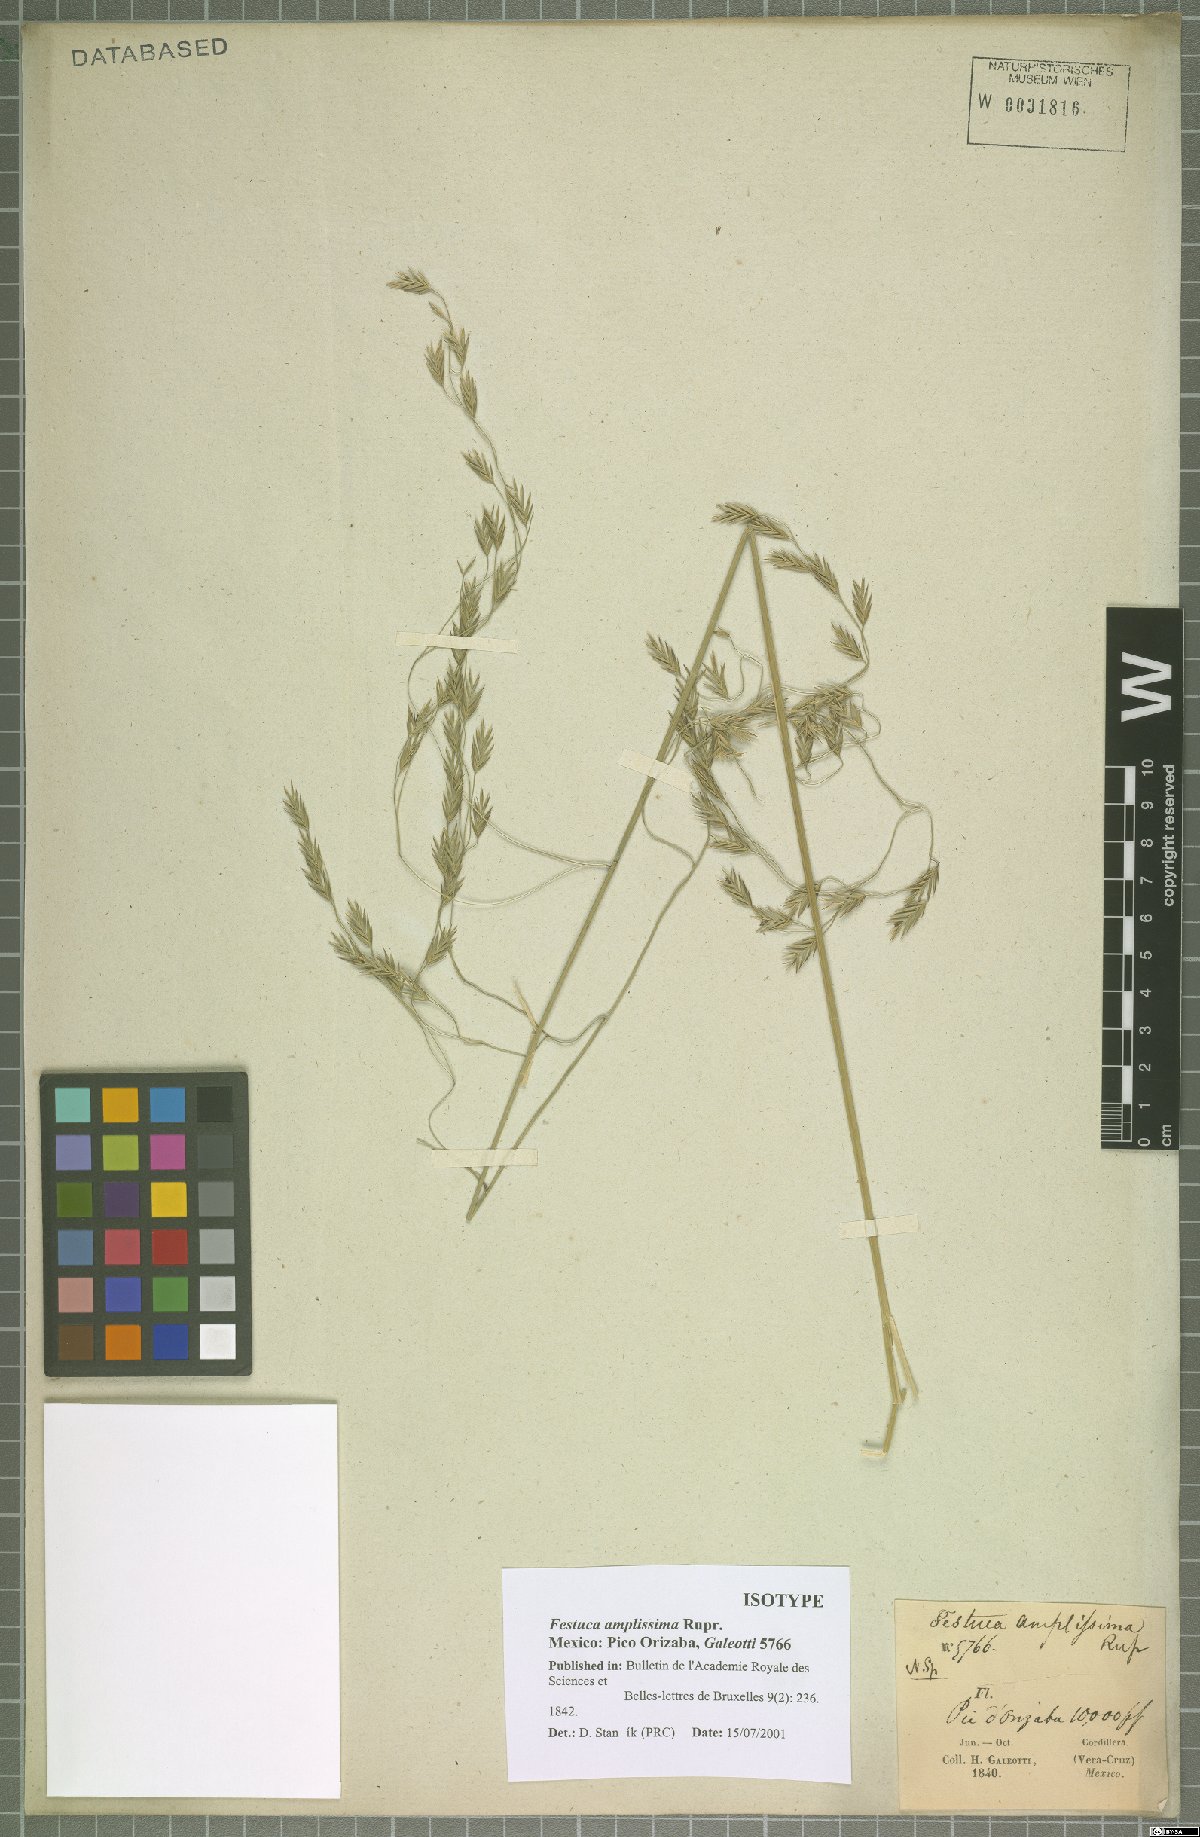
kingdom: Plantae
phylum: Tracheophyta
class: Liliopsida
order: Poales
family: Poaceae
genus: Festuca
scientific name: Festuca amplissima
